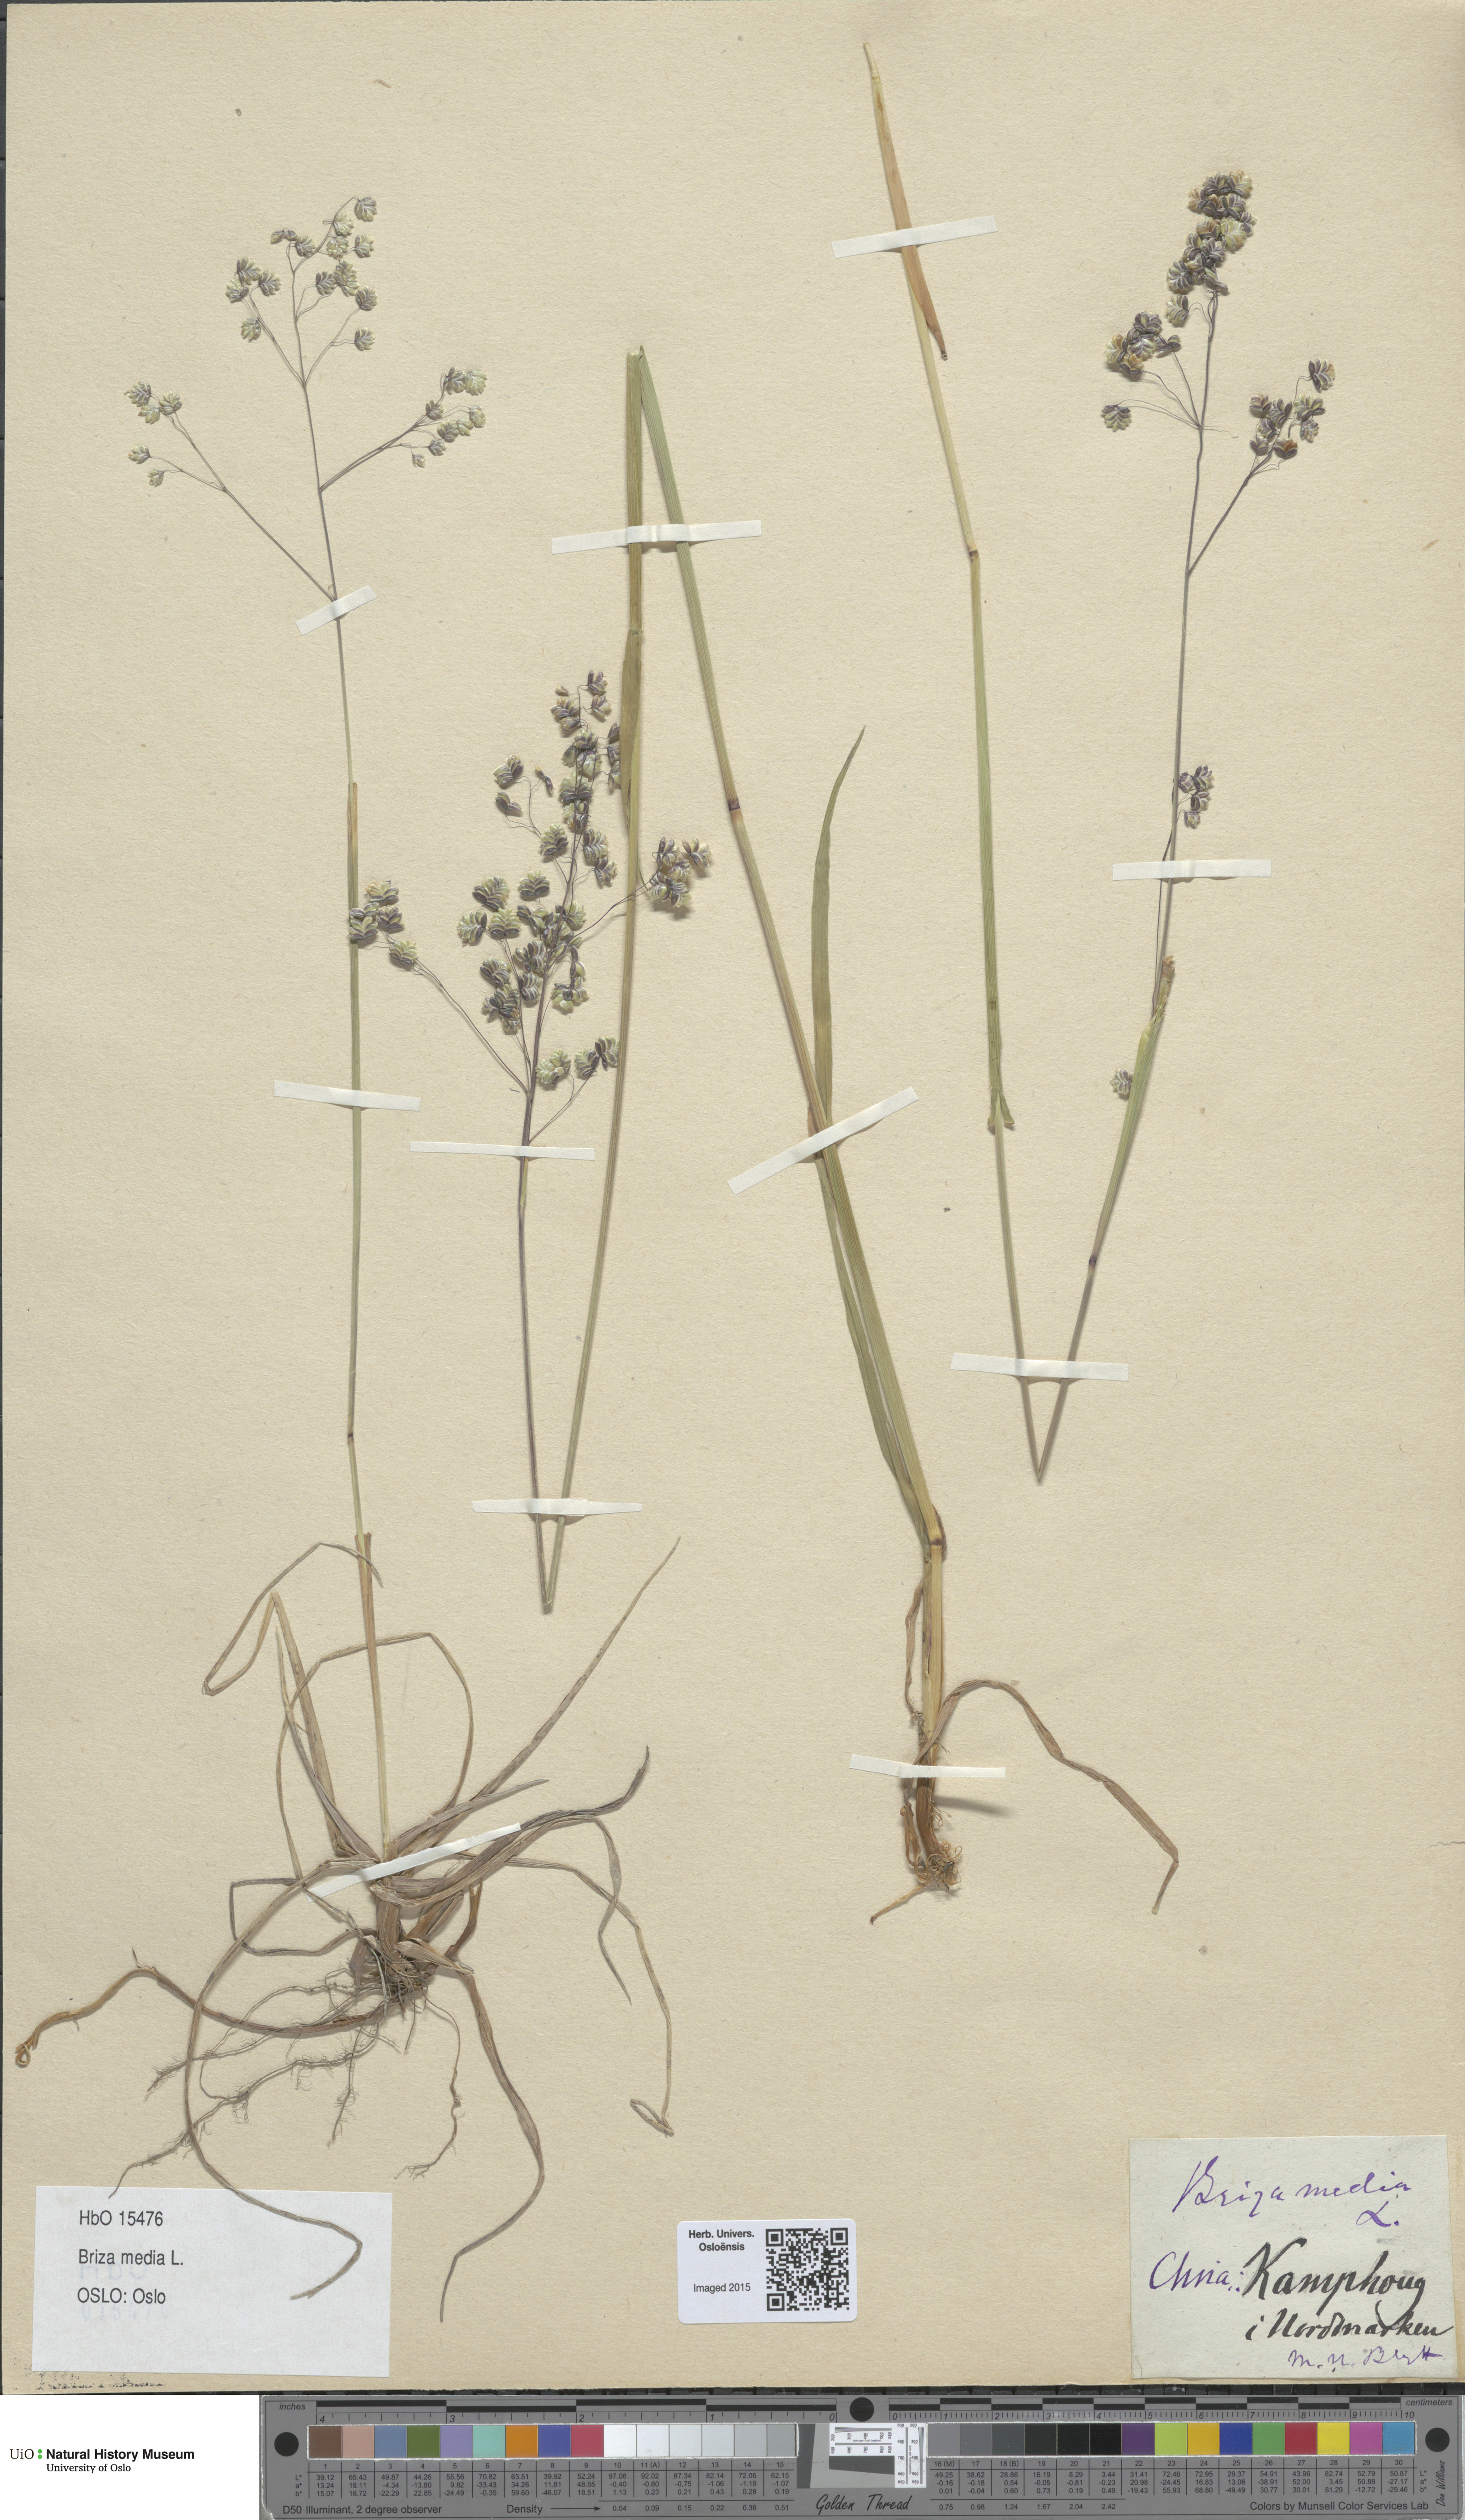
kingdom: Plantae
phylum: Tracheophyta
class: Liliopsida
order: Poales
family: Poaceae
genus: Briza
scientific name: Briza media
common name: Quaking grass
